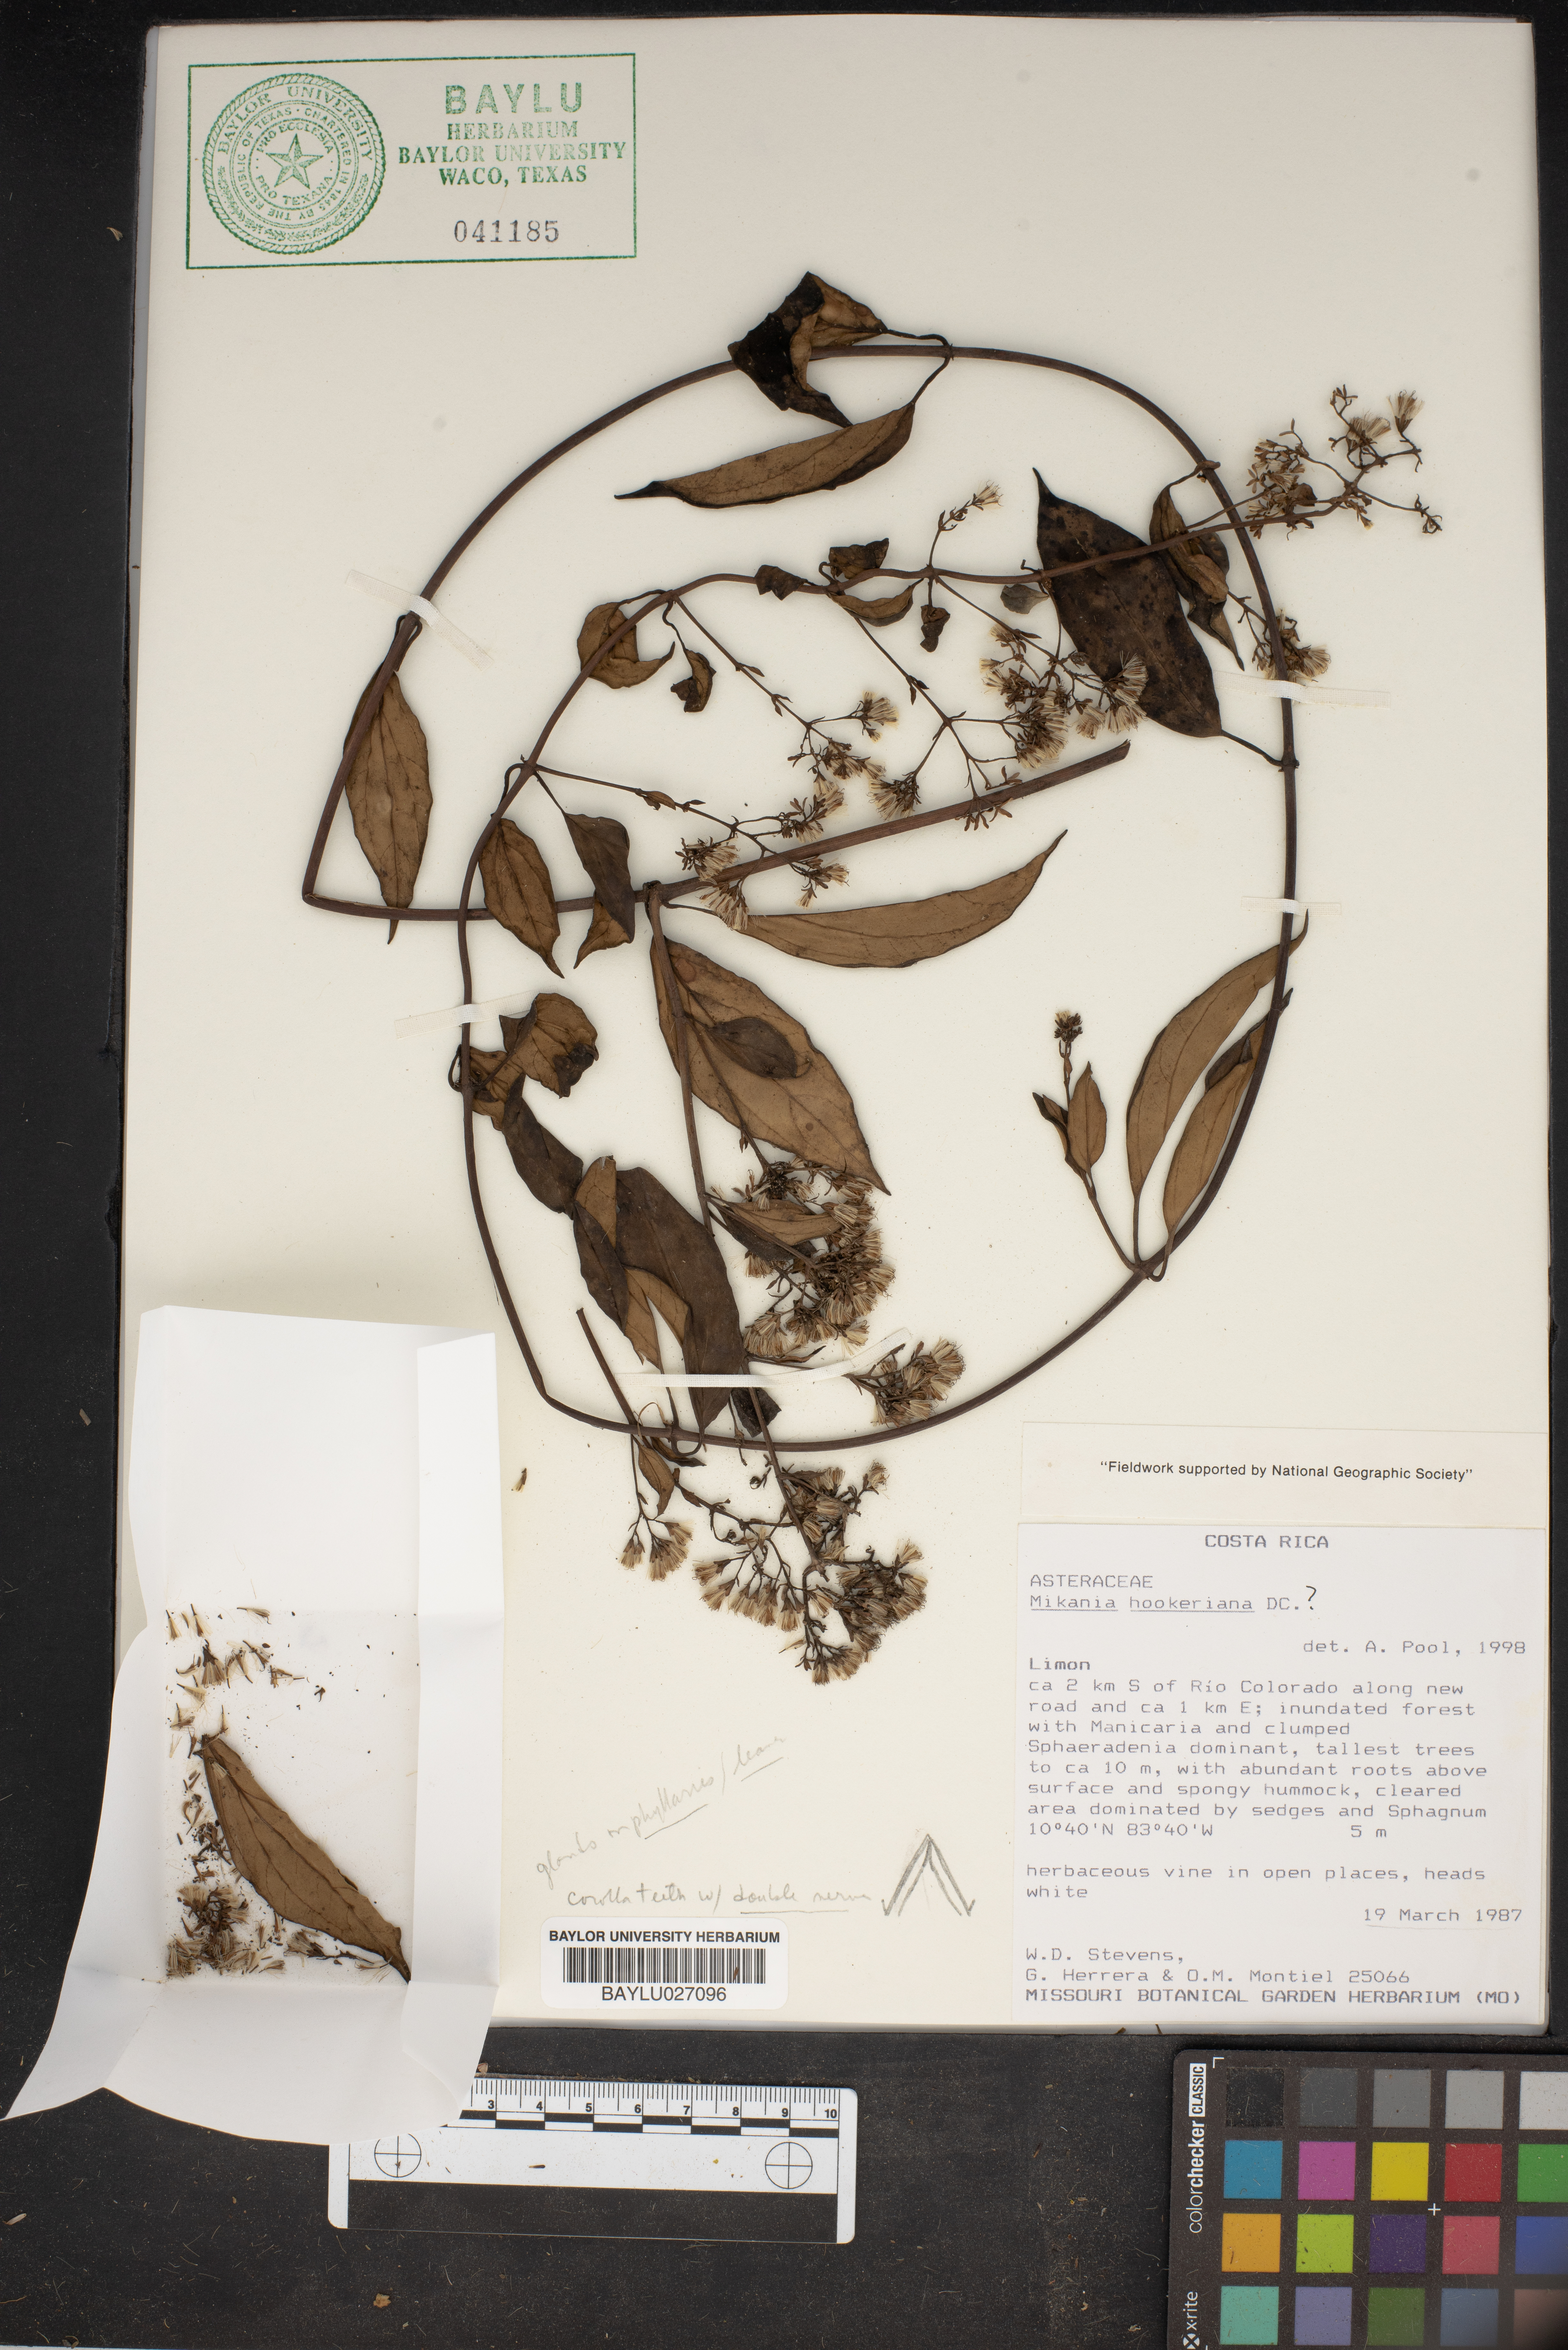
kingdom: Plantae
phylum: Tracheophyta
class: Magnoliopsida
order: Asterales
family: Asteraceae
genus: Mikania
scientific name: Mikania hookeriana
